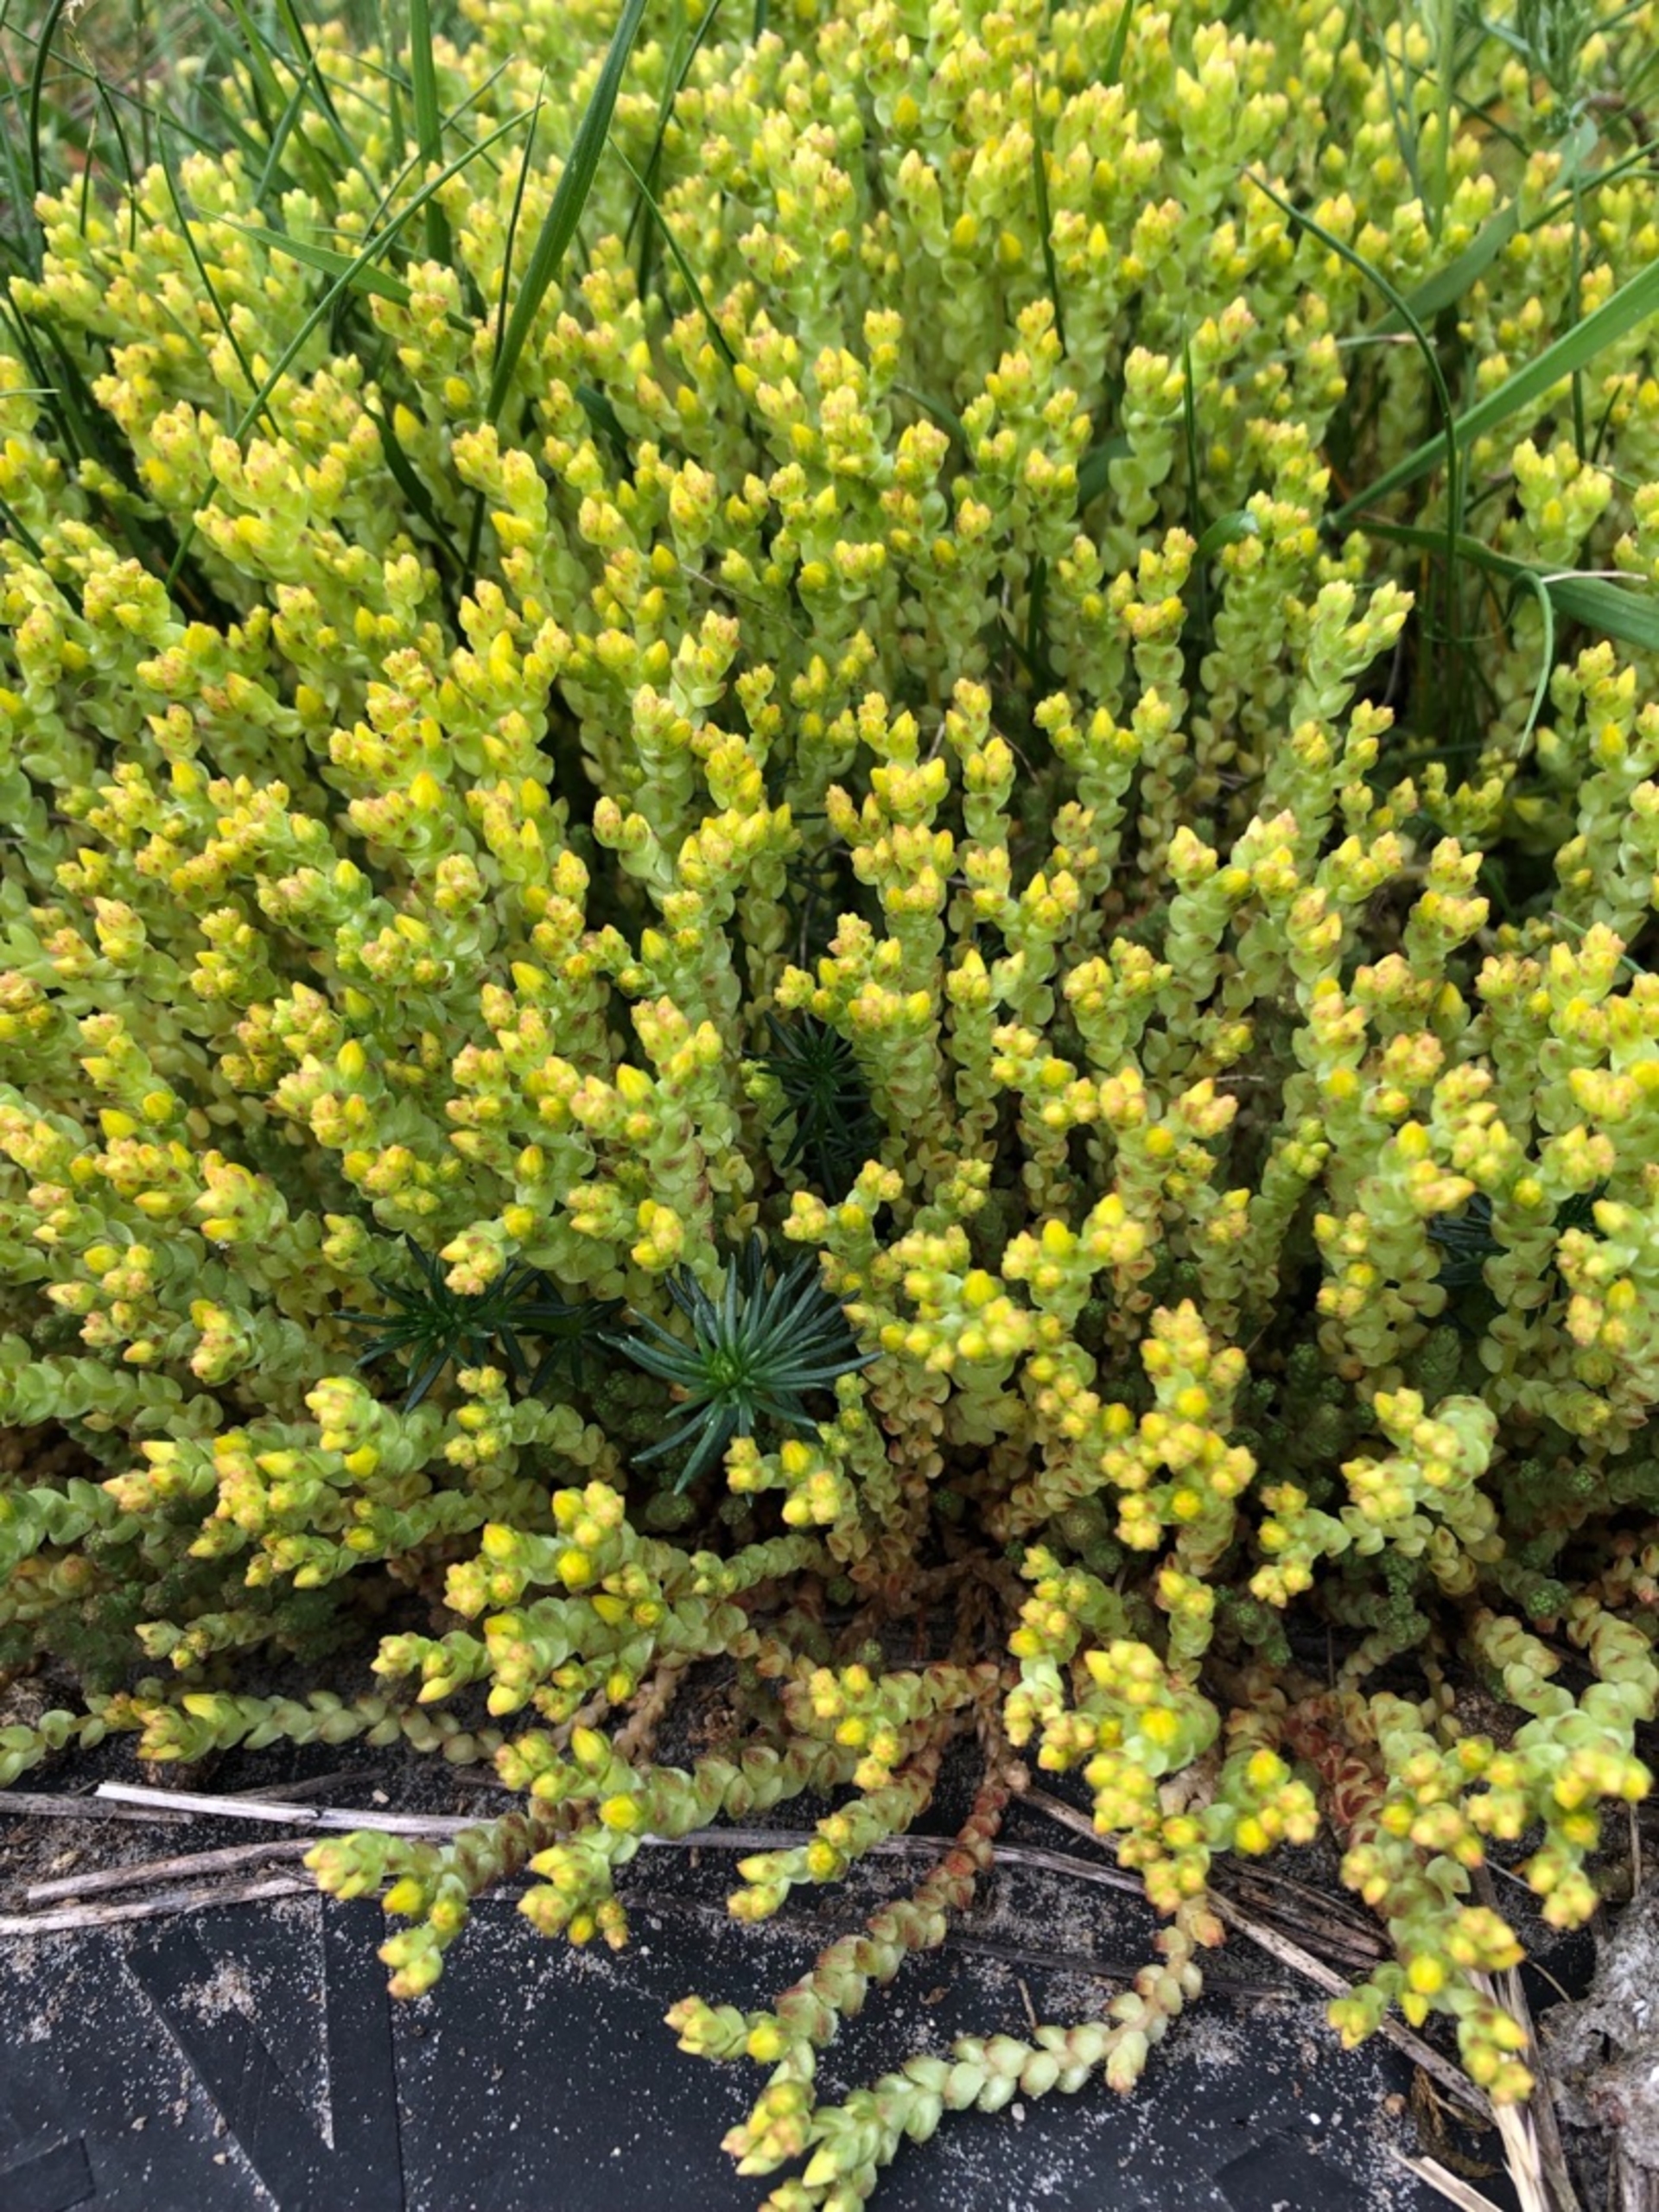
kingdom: Plantae
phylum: Tracheophyta
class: Magnoliopsida
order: Saxifragales
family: Crassulaceae
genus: Sedum
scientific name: Sedum acre
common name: Bidende stenurt
